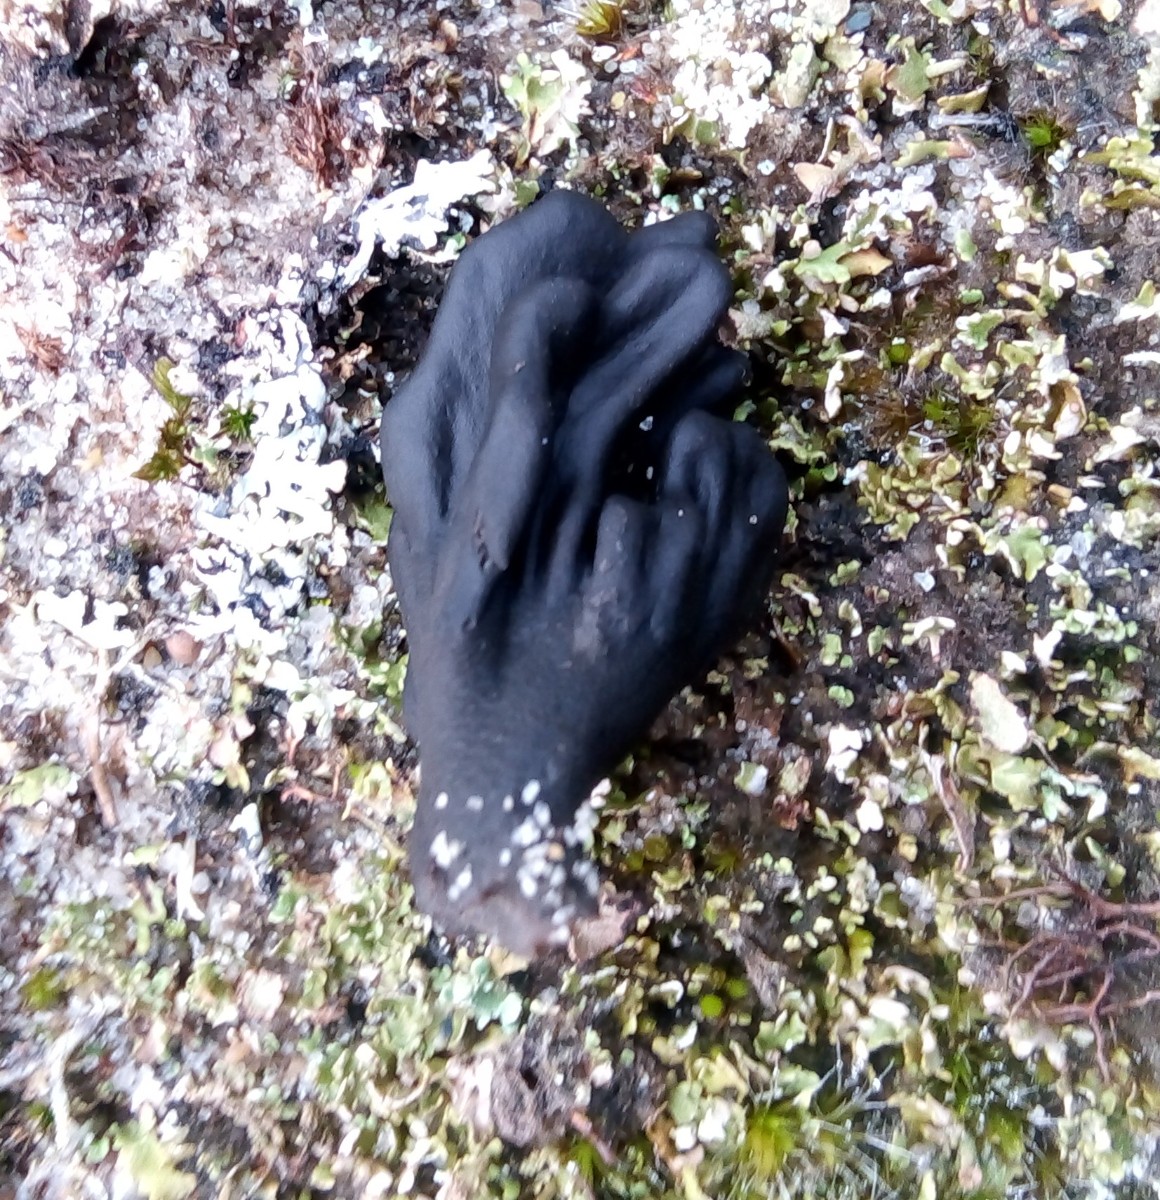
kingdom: Fungi
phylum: Ascomycota
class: Geoglossomycetes
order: Geoglossales
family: Geoglossaceae
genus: Sabuloglossum
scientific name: Sabuloglossum arenarium
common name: klit-jordtunge
